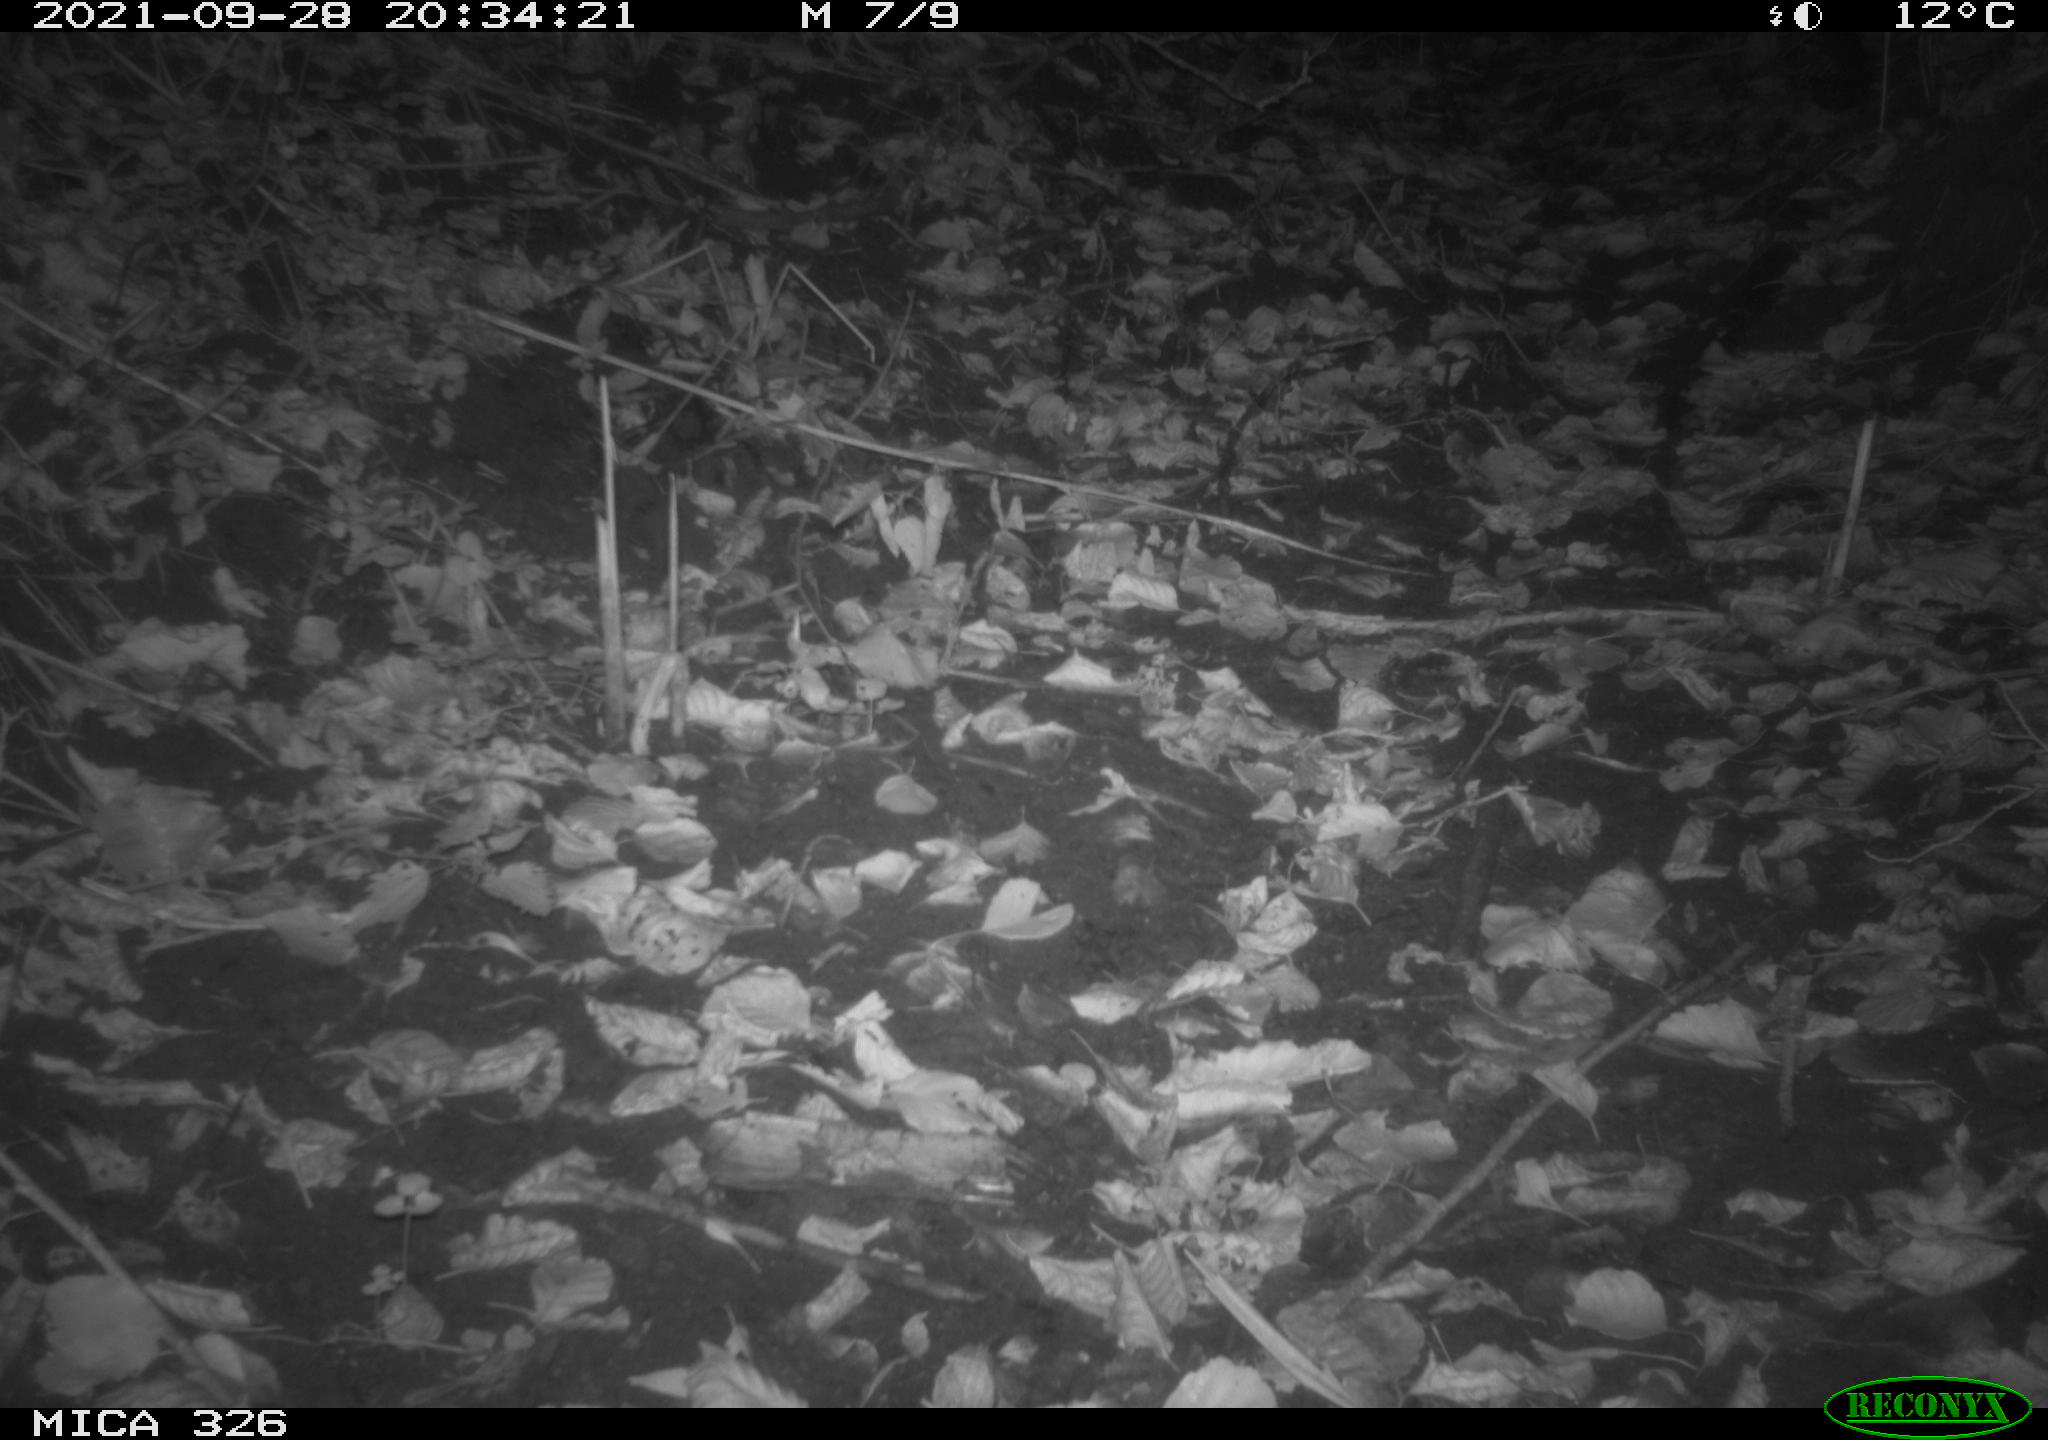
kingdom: Animalia
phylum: Chordata
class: Mammalia
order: Carnivora
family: Mustelidae
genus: Mustela
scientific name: Mustela putorius
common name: European polecat
